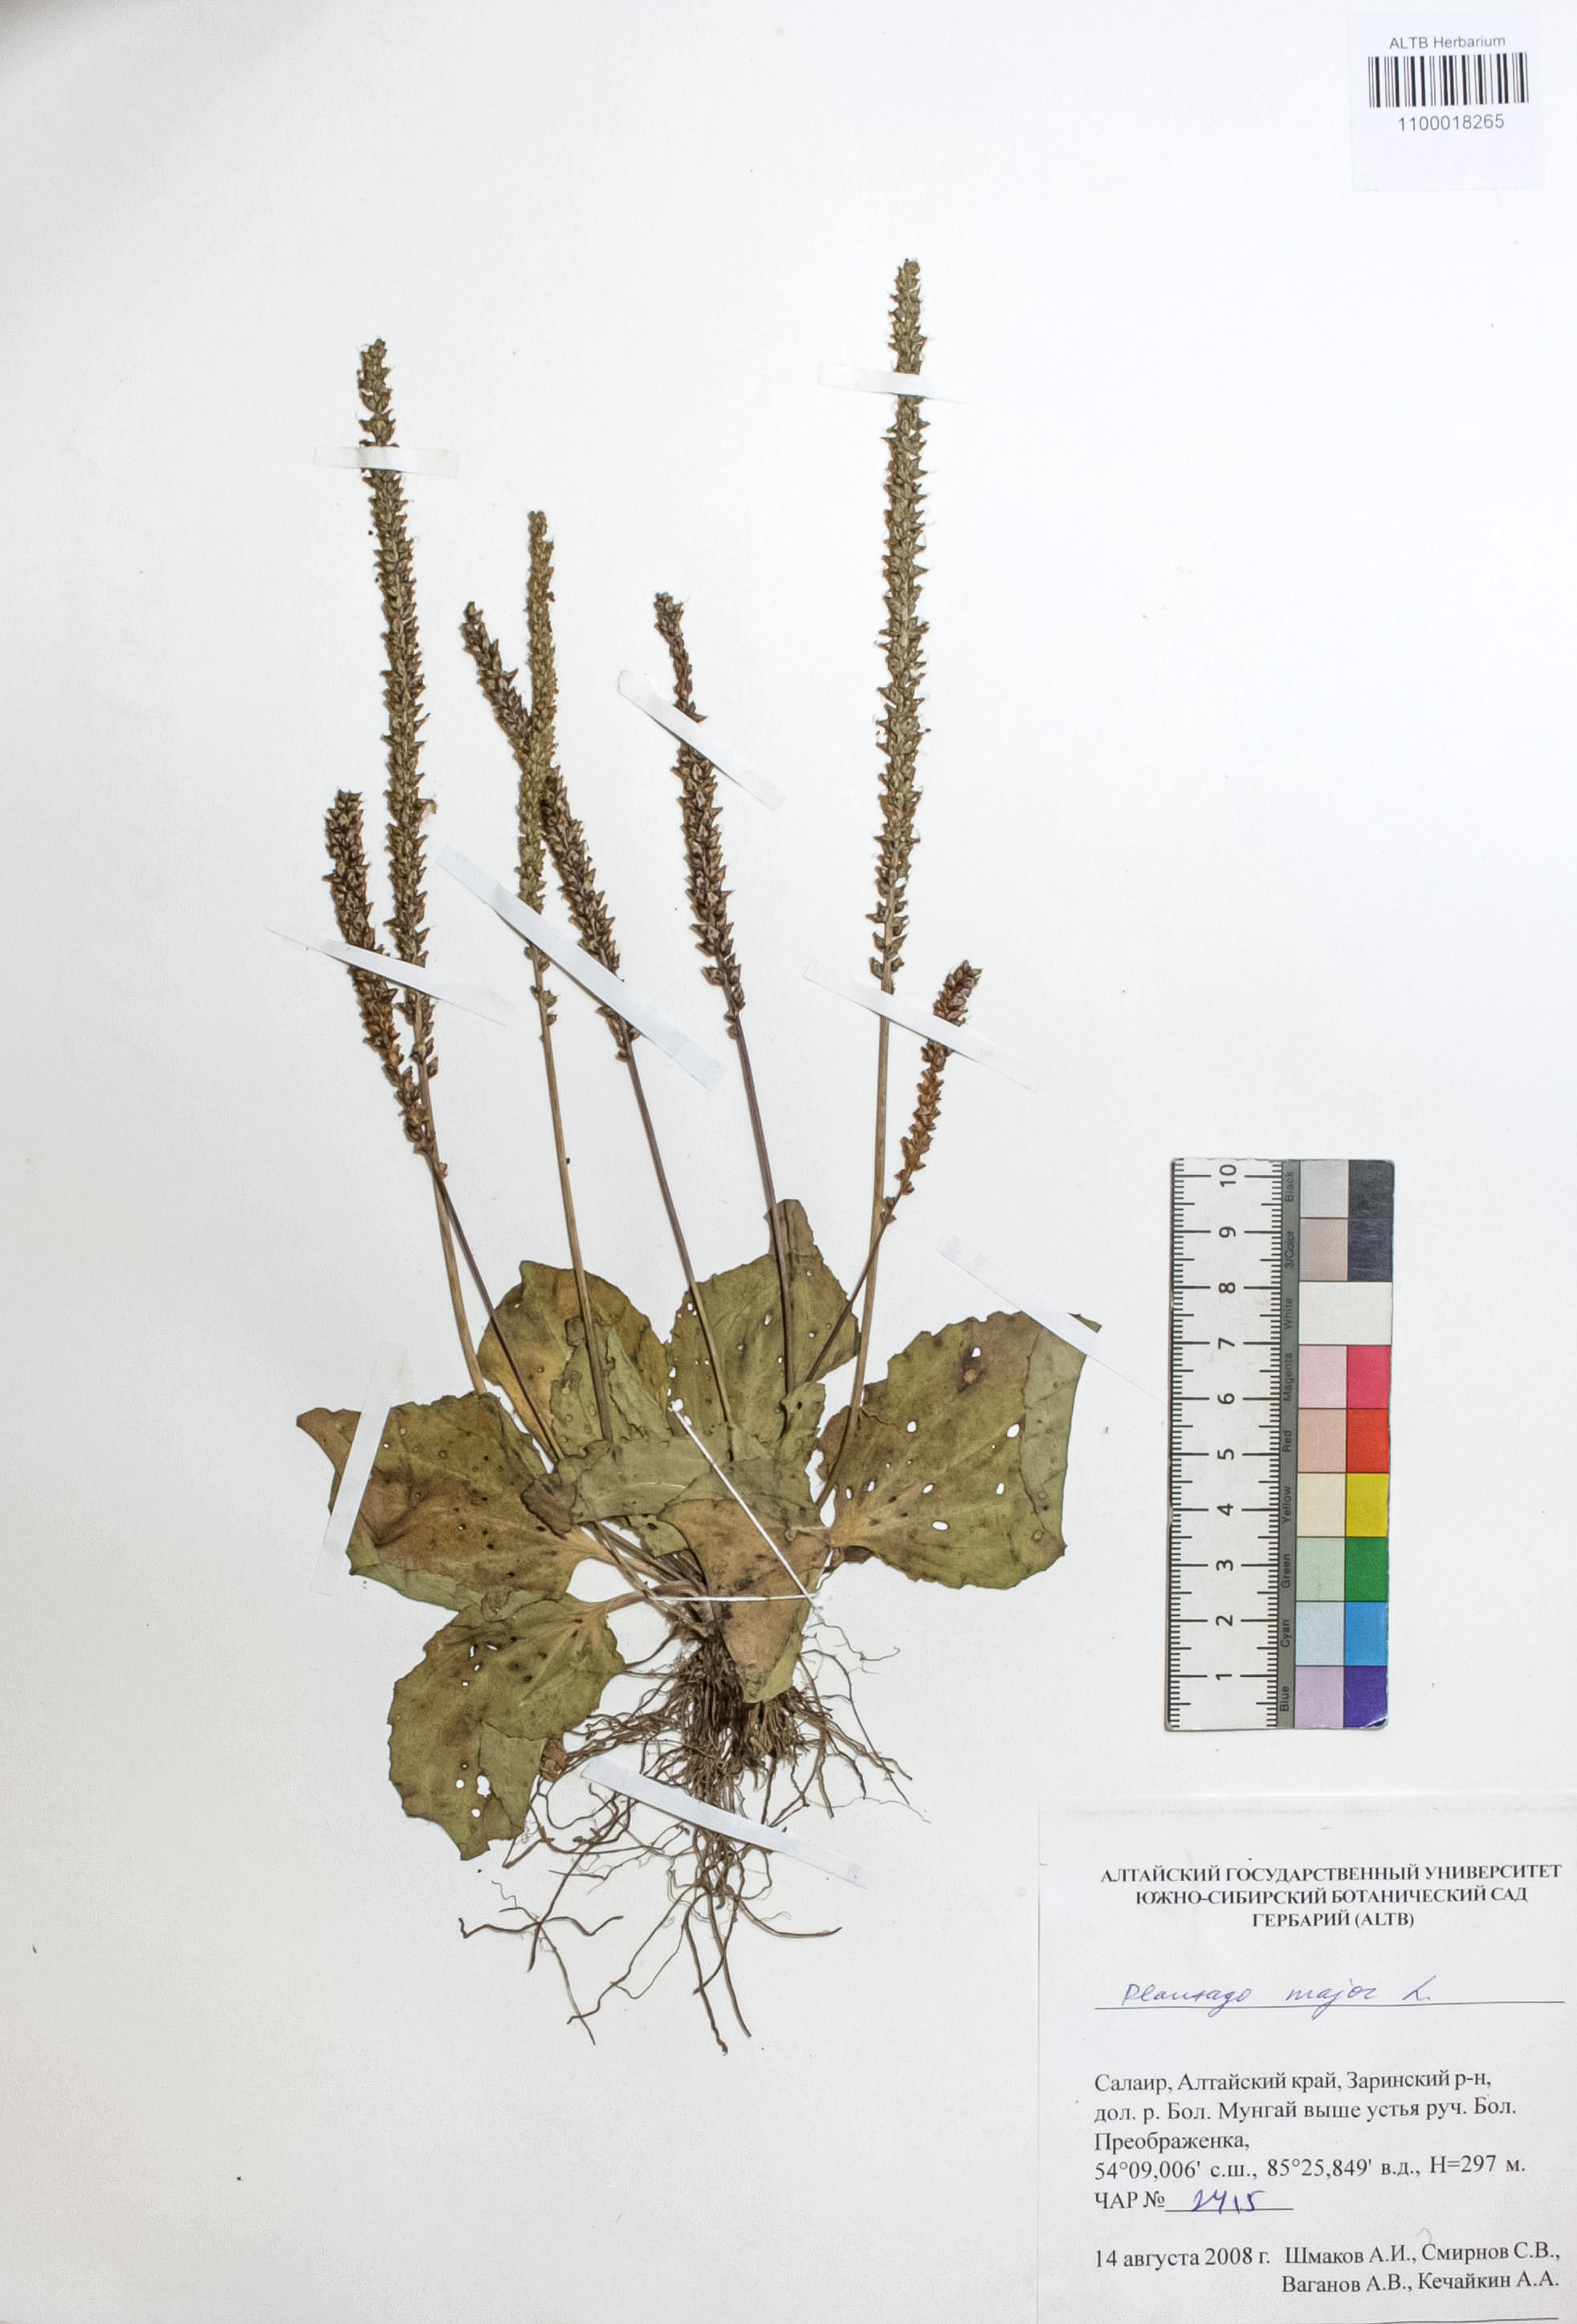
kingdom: Plantae
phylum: Tracheophyta
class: Magnoliopsida
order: Lamiales
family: Plantaginaceae
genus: Plantago
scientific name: Plantago major
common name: Common plantain
